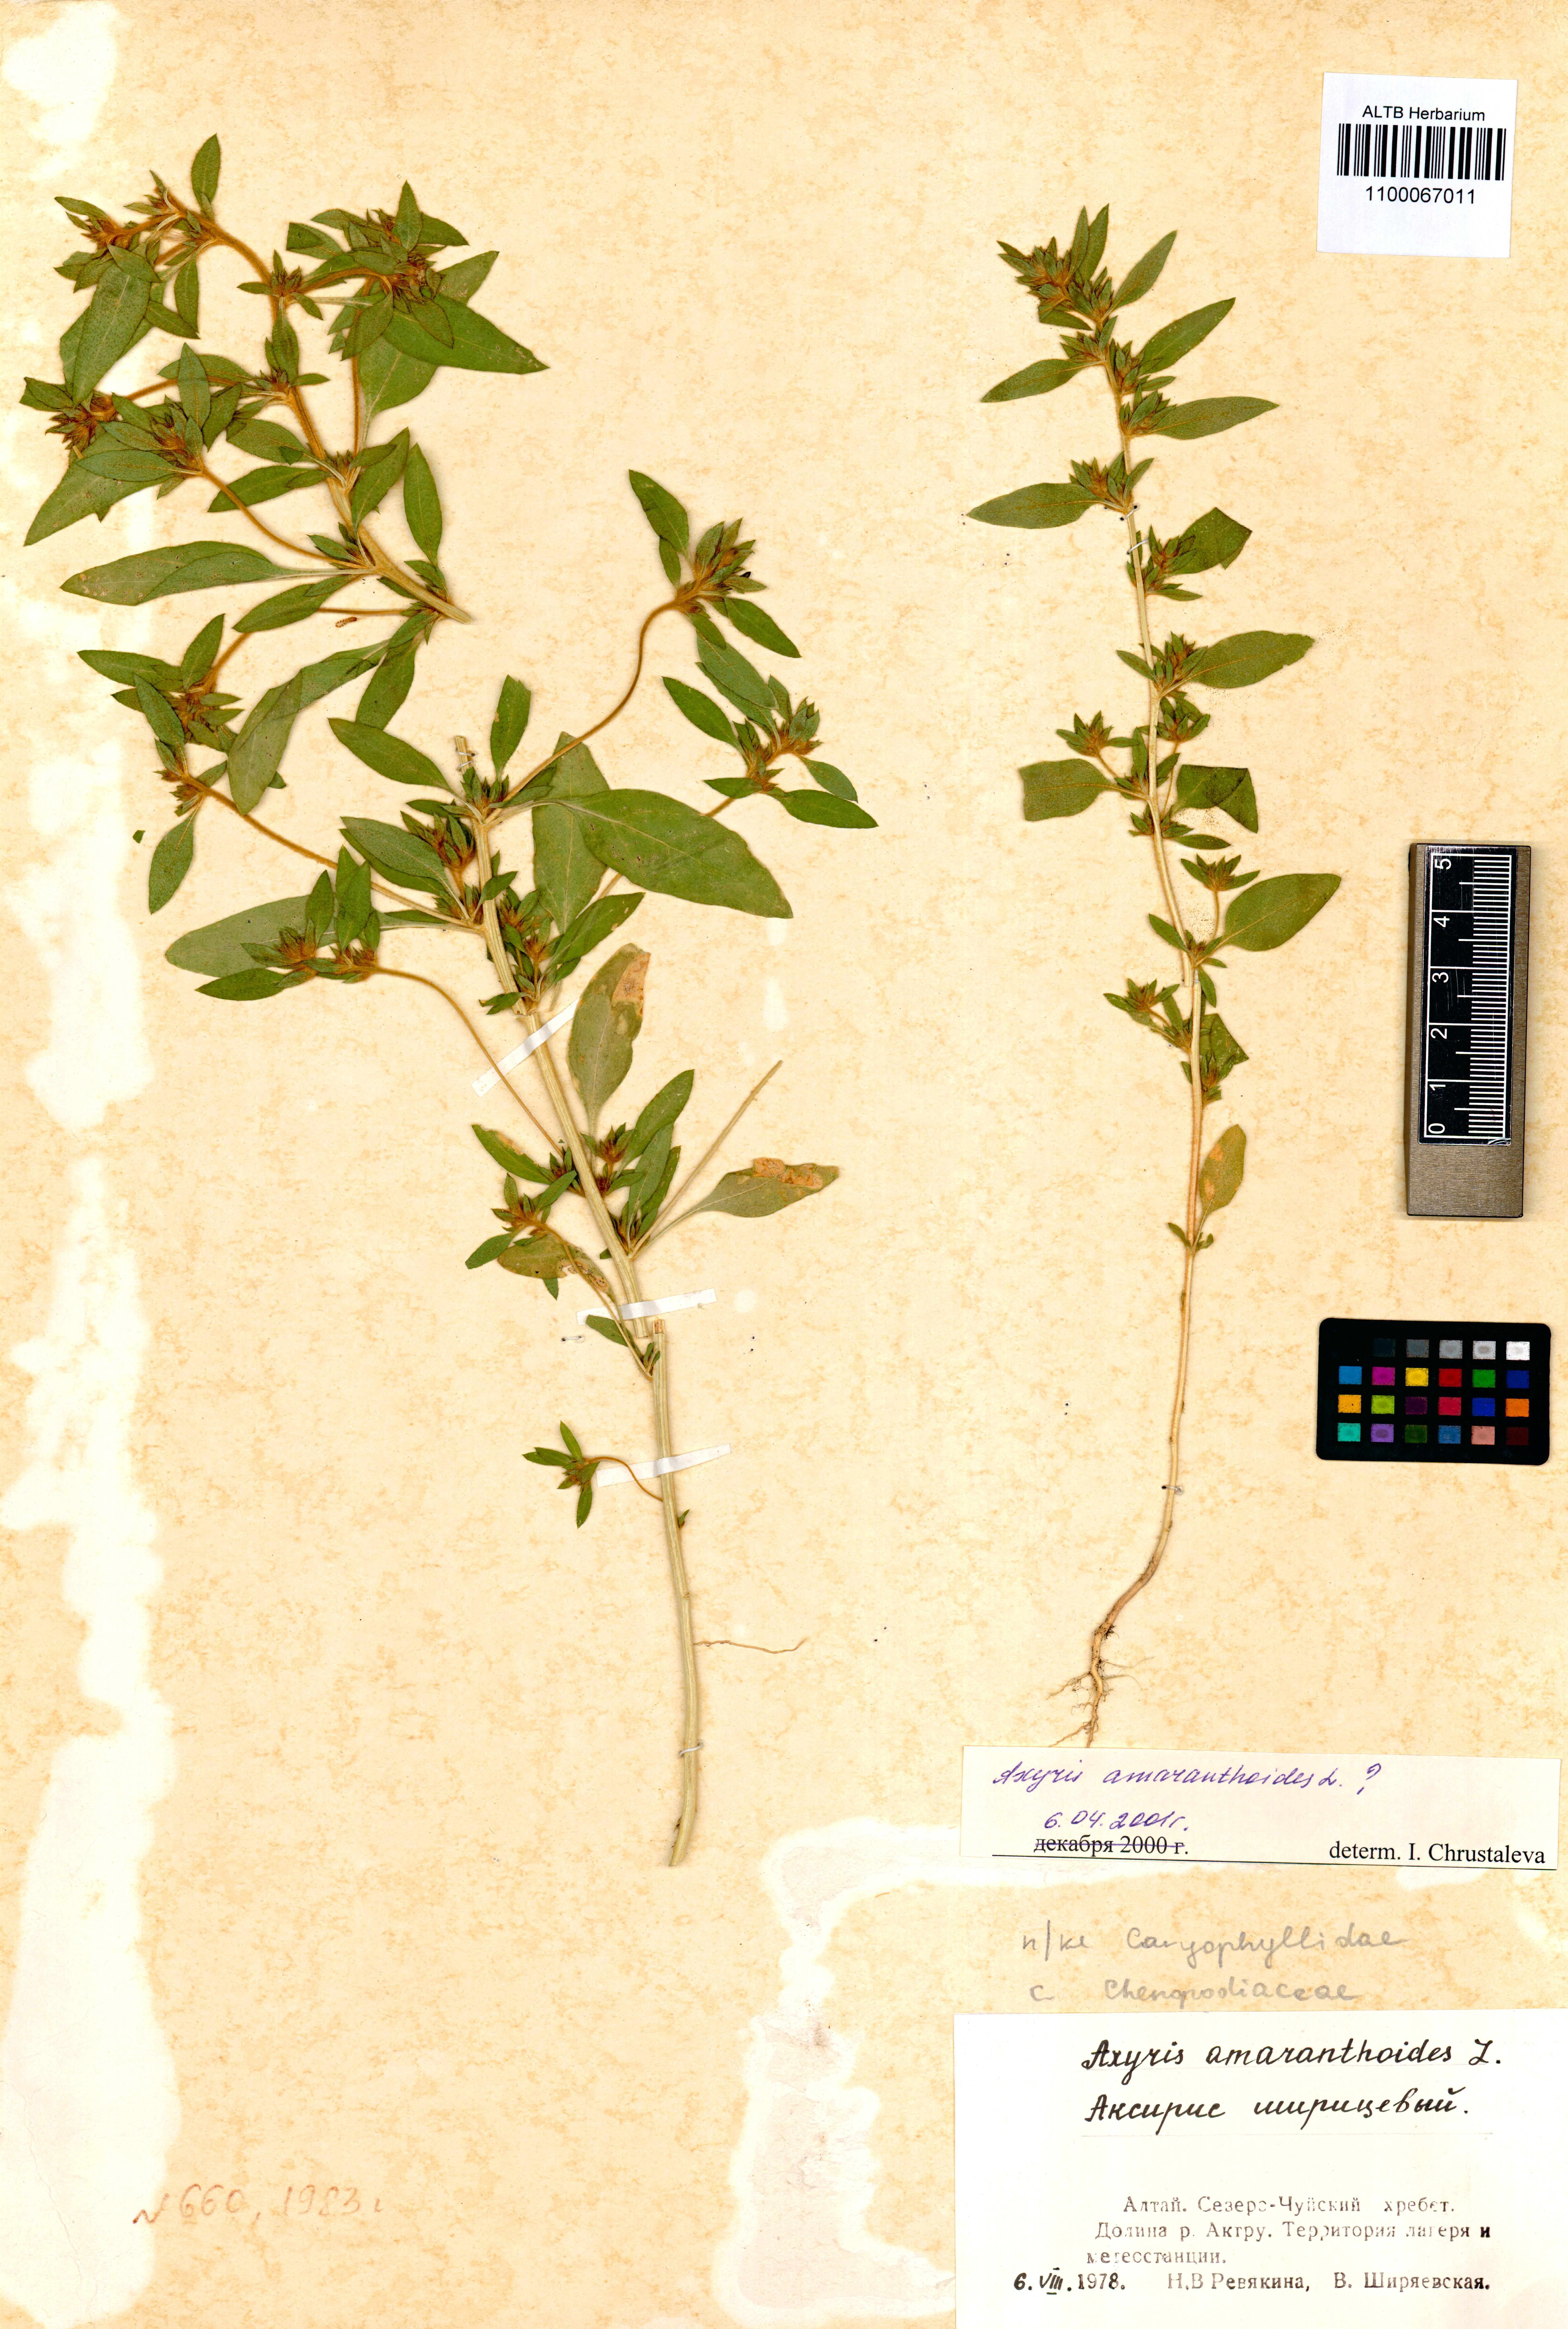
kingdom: Plantae
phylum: Tracheophyta
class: Magnoliopsida
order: Caryophyllales
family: Amaranthaceae
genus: Axyris
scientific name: Axyris amaranthoides
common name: Russian pigweed
